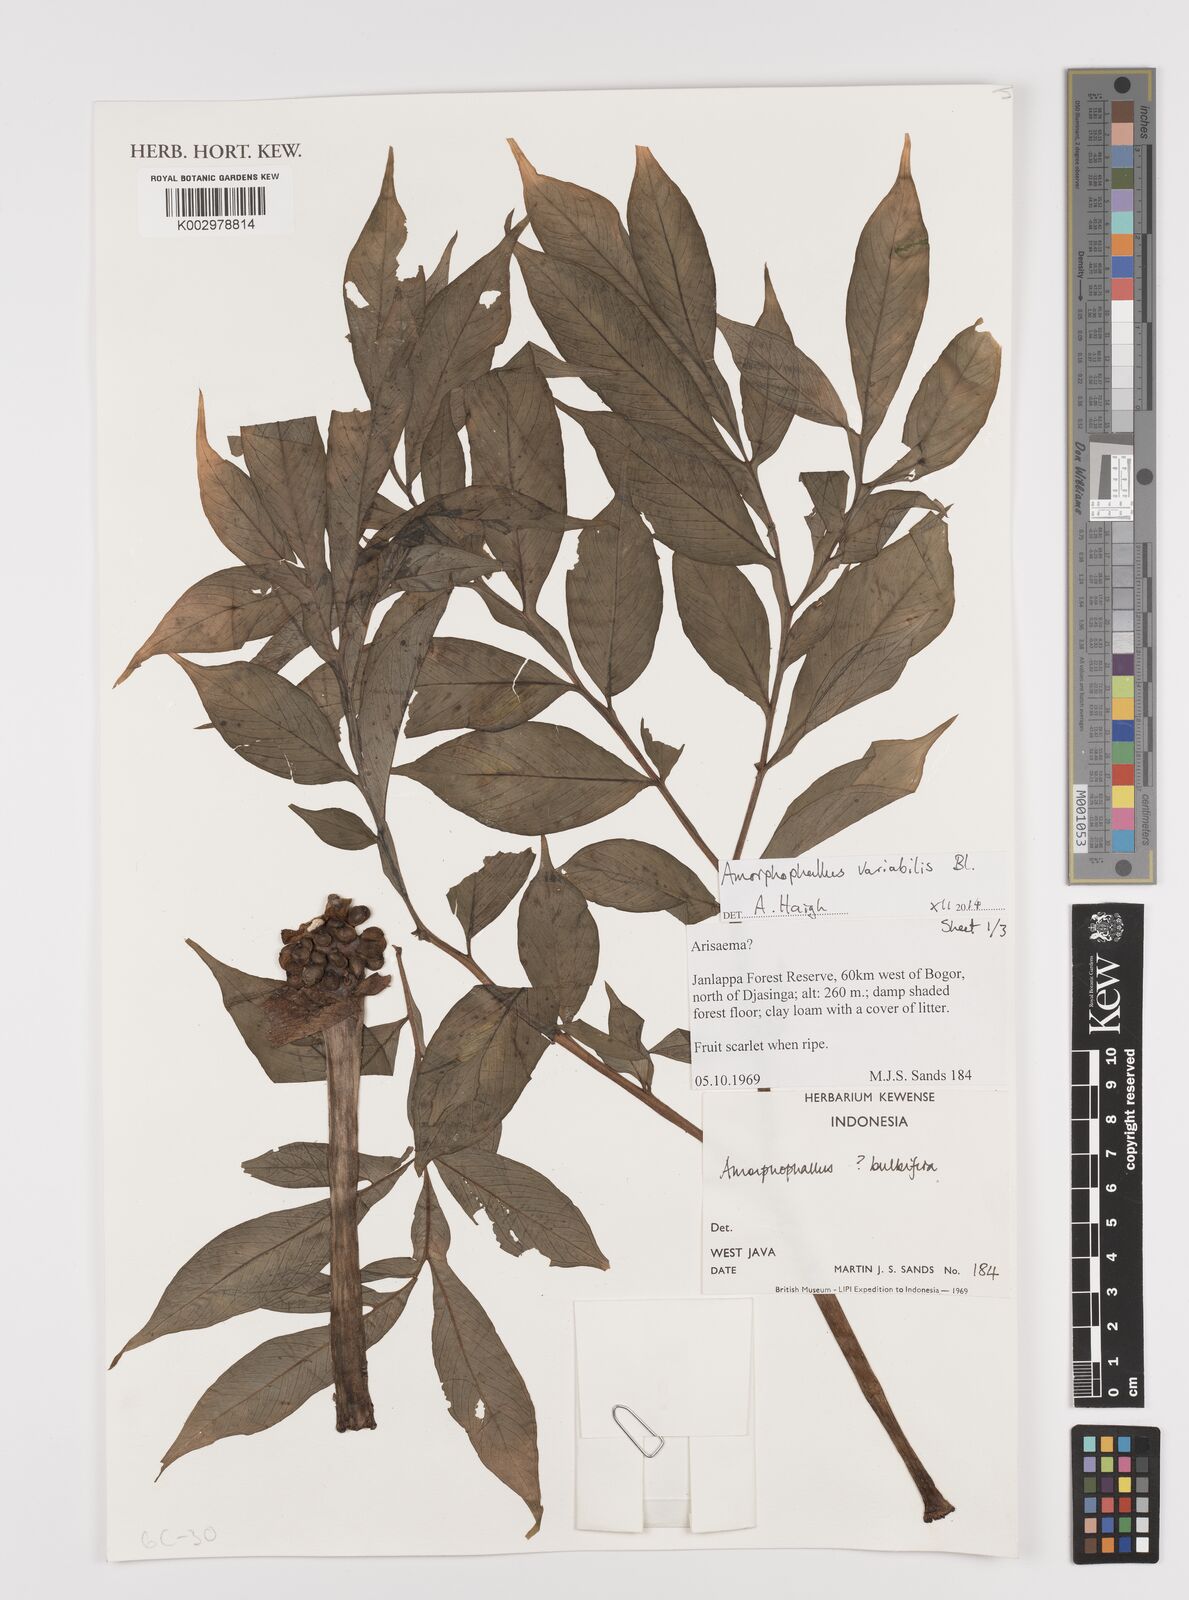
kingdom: Plantae
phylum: Tracheophyta
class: Liliopsida
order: Alismatales
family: Araceae
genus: Amorphophallus
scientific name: Amorphophallus variabilis
